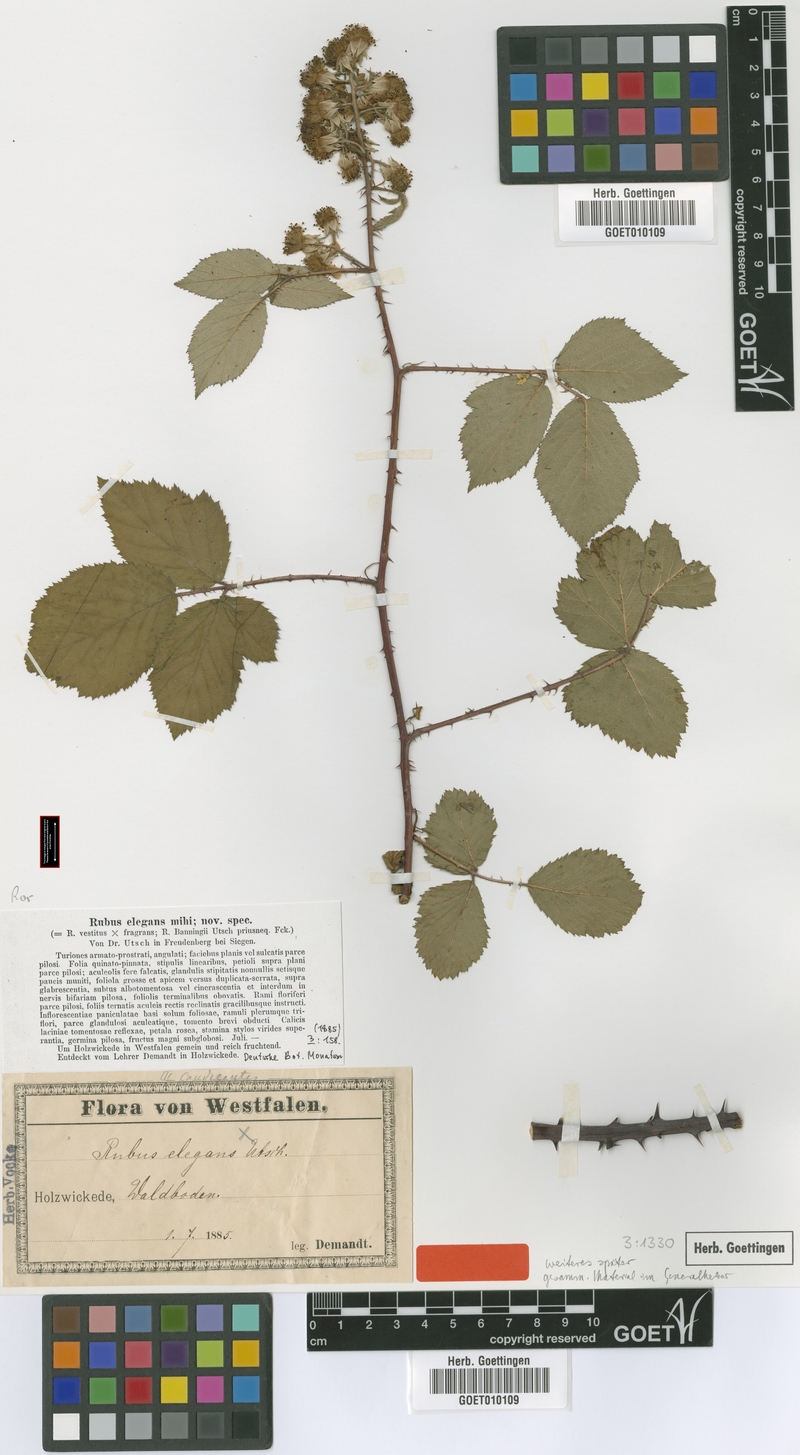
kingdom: Plantae
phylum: Tracheophyta
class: Magnoliopsida
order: Rosales
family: Rosaceae
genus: Rubus
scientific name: Rubus elegantispinosus
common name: Slender spined bramble
